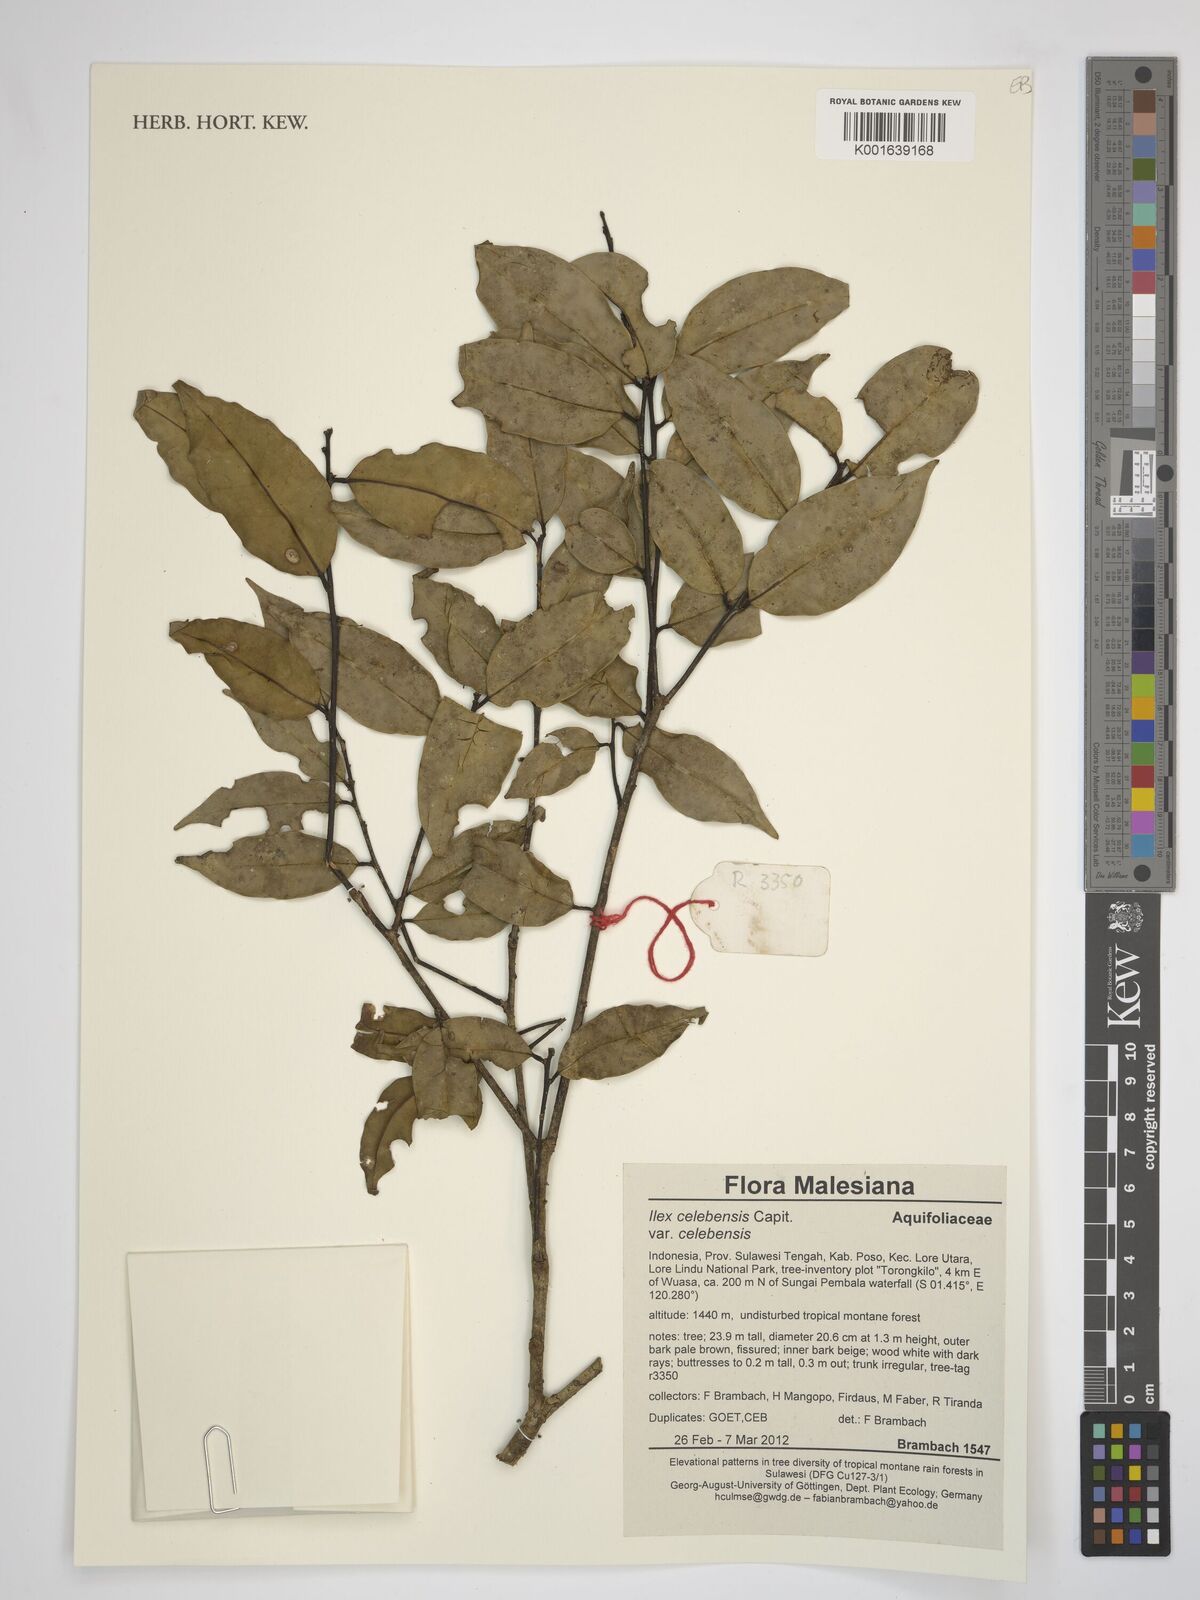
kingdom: Plantae
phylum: Tracheophyta
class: Magnoliopsida
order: Aquifoliales
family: Aquifoliaceae
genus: Ilex
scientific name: Ilex celebensis
